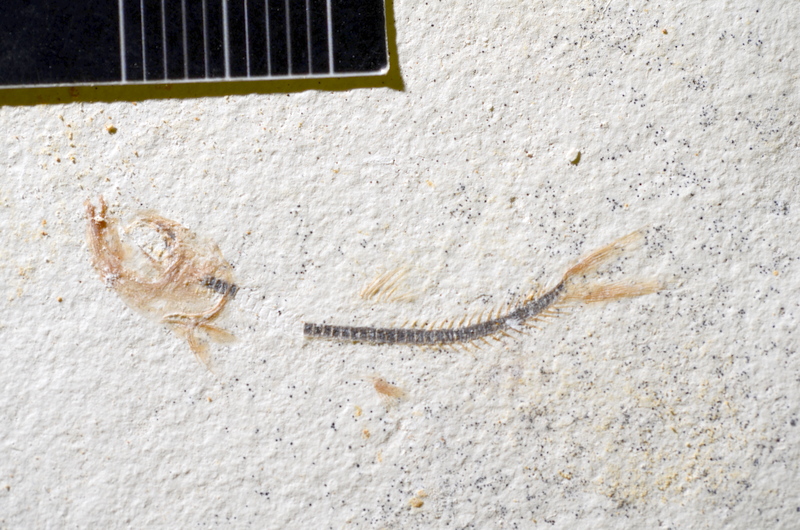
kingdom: Animalia
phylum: Chordata
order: Salmoniformes
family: Orthogonikleithridae
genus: Orthogonikleithrus
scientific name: Orthogonikleithrus hoelli
